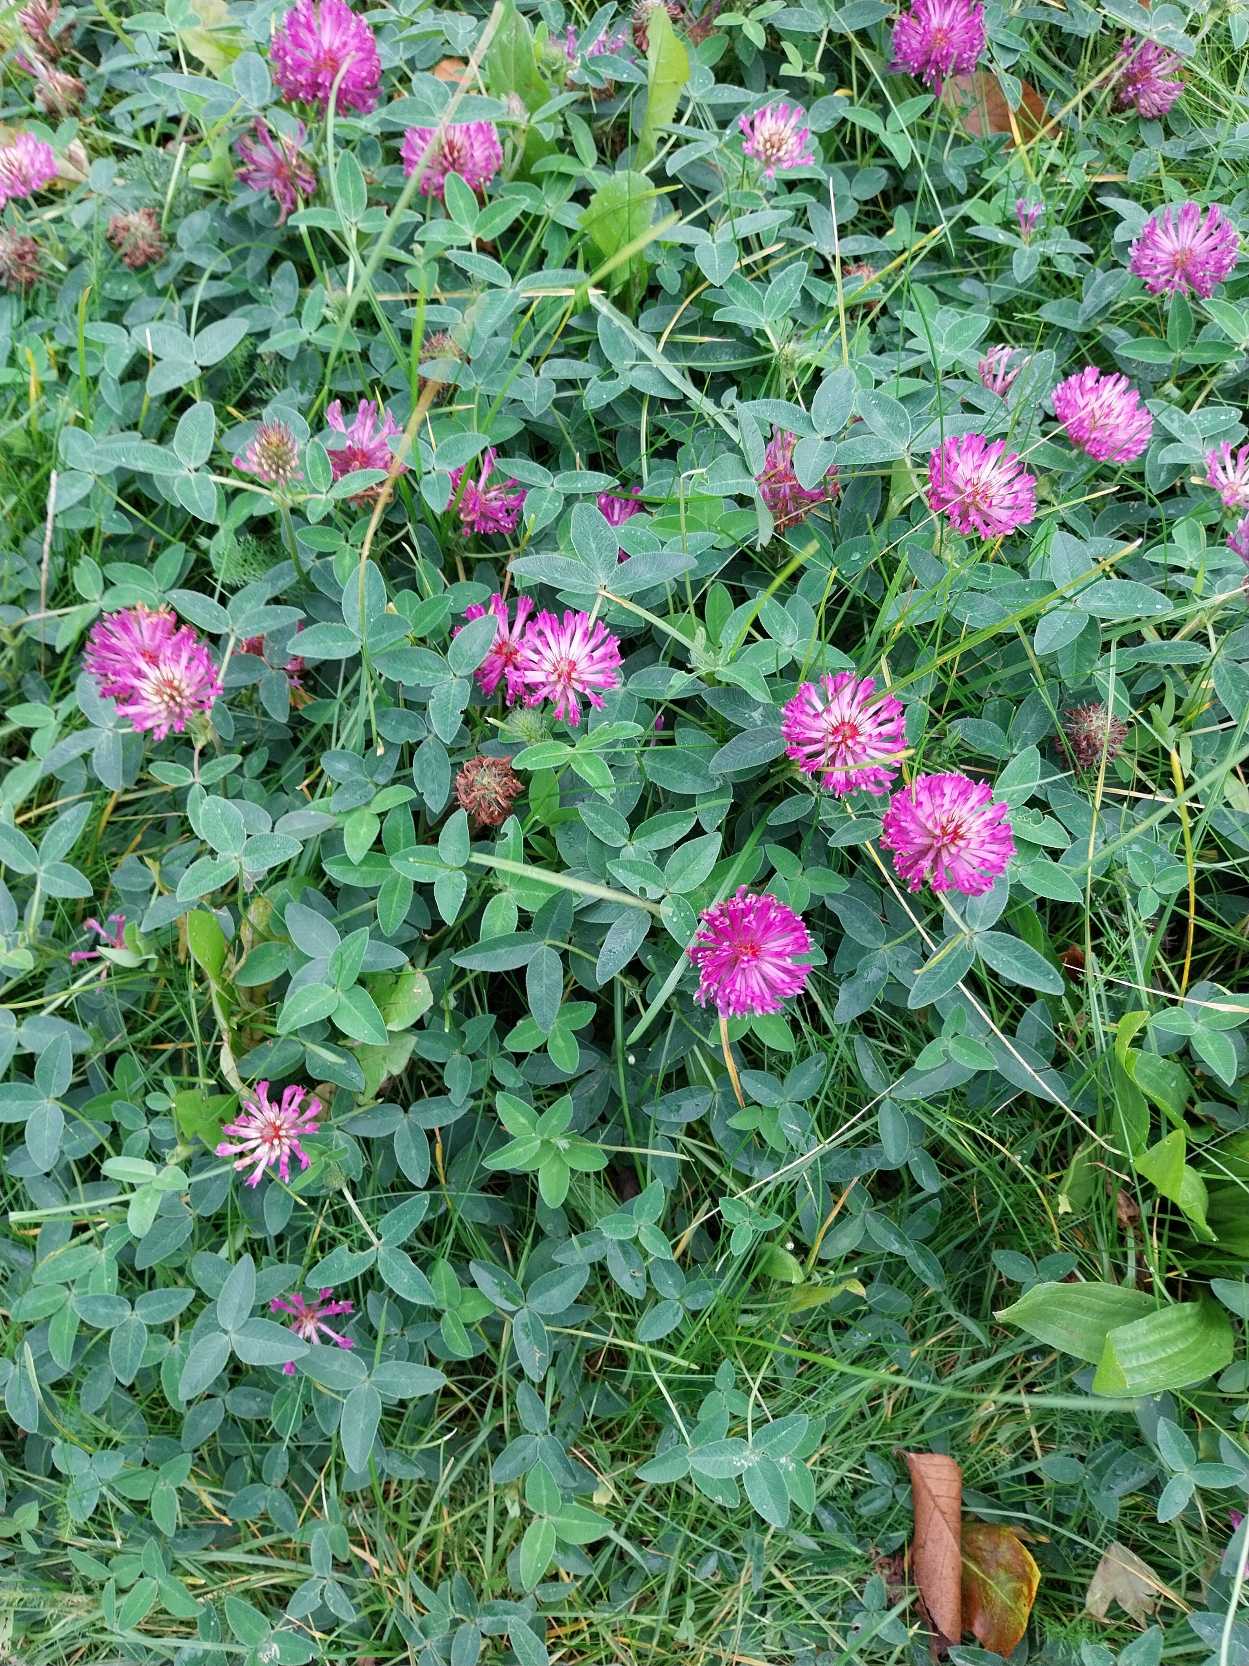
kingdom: Plantae
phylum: Tracheophyta
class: Magnoliopsida
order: Fabales
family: Fabaceae
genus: Trifolium
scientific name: Trifolium medium
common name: Bugtet kløver
